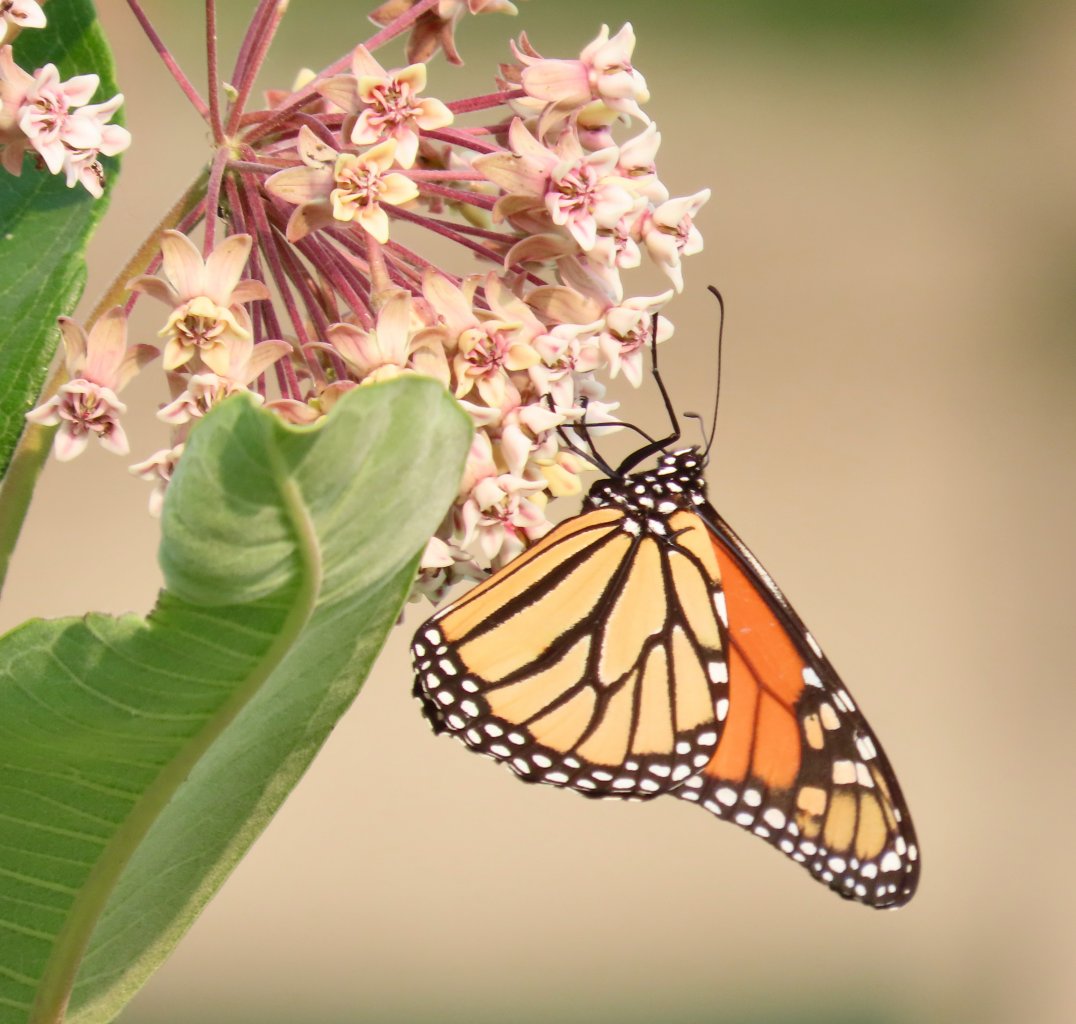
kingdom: Animalia
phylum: Arthropoda
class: Insecta
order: Lepidoptera
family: Nymphalidae
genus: Danaus
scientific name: Danaus plexippus
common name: Monarch
